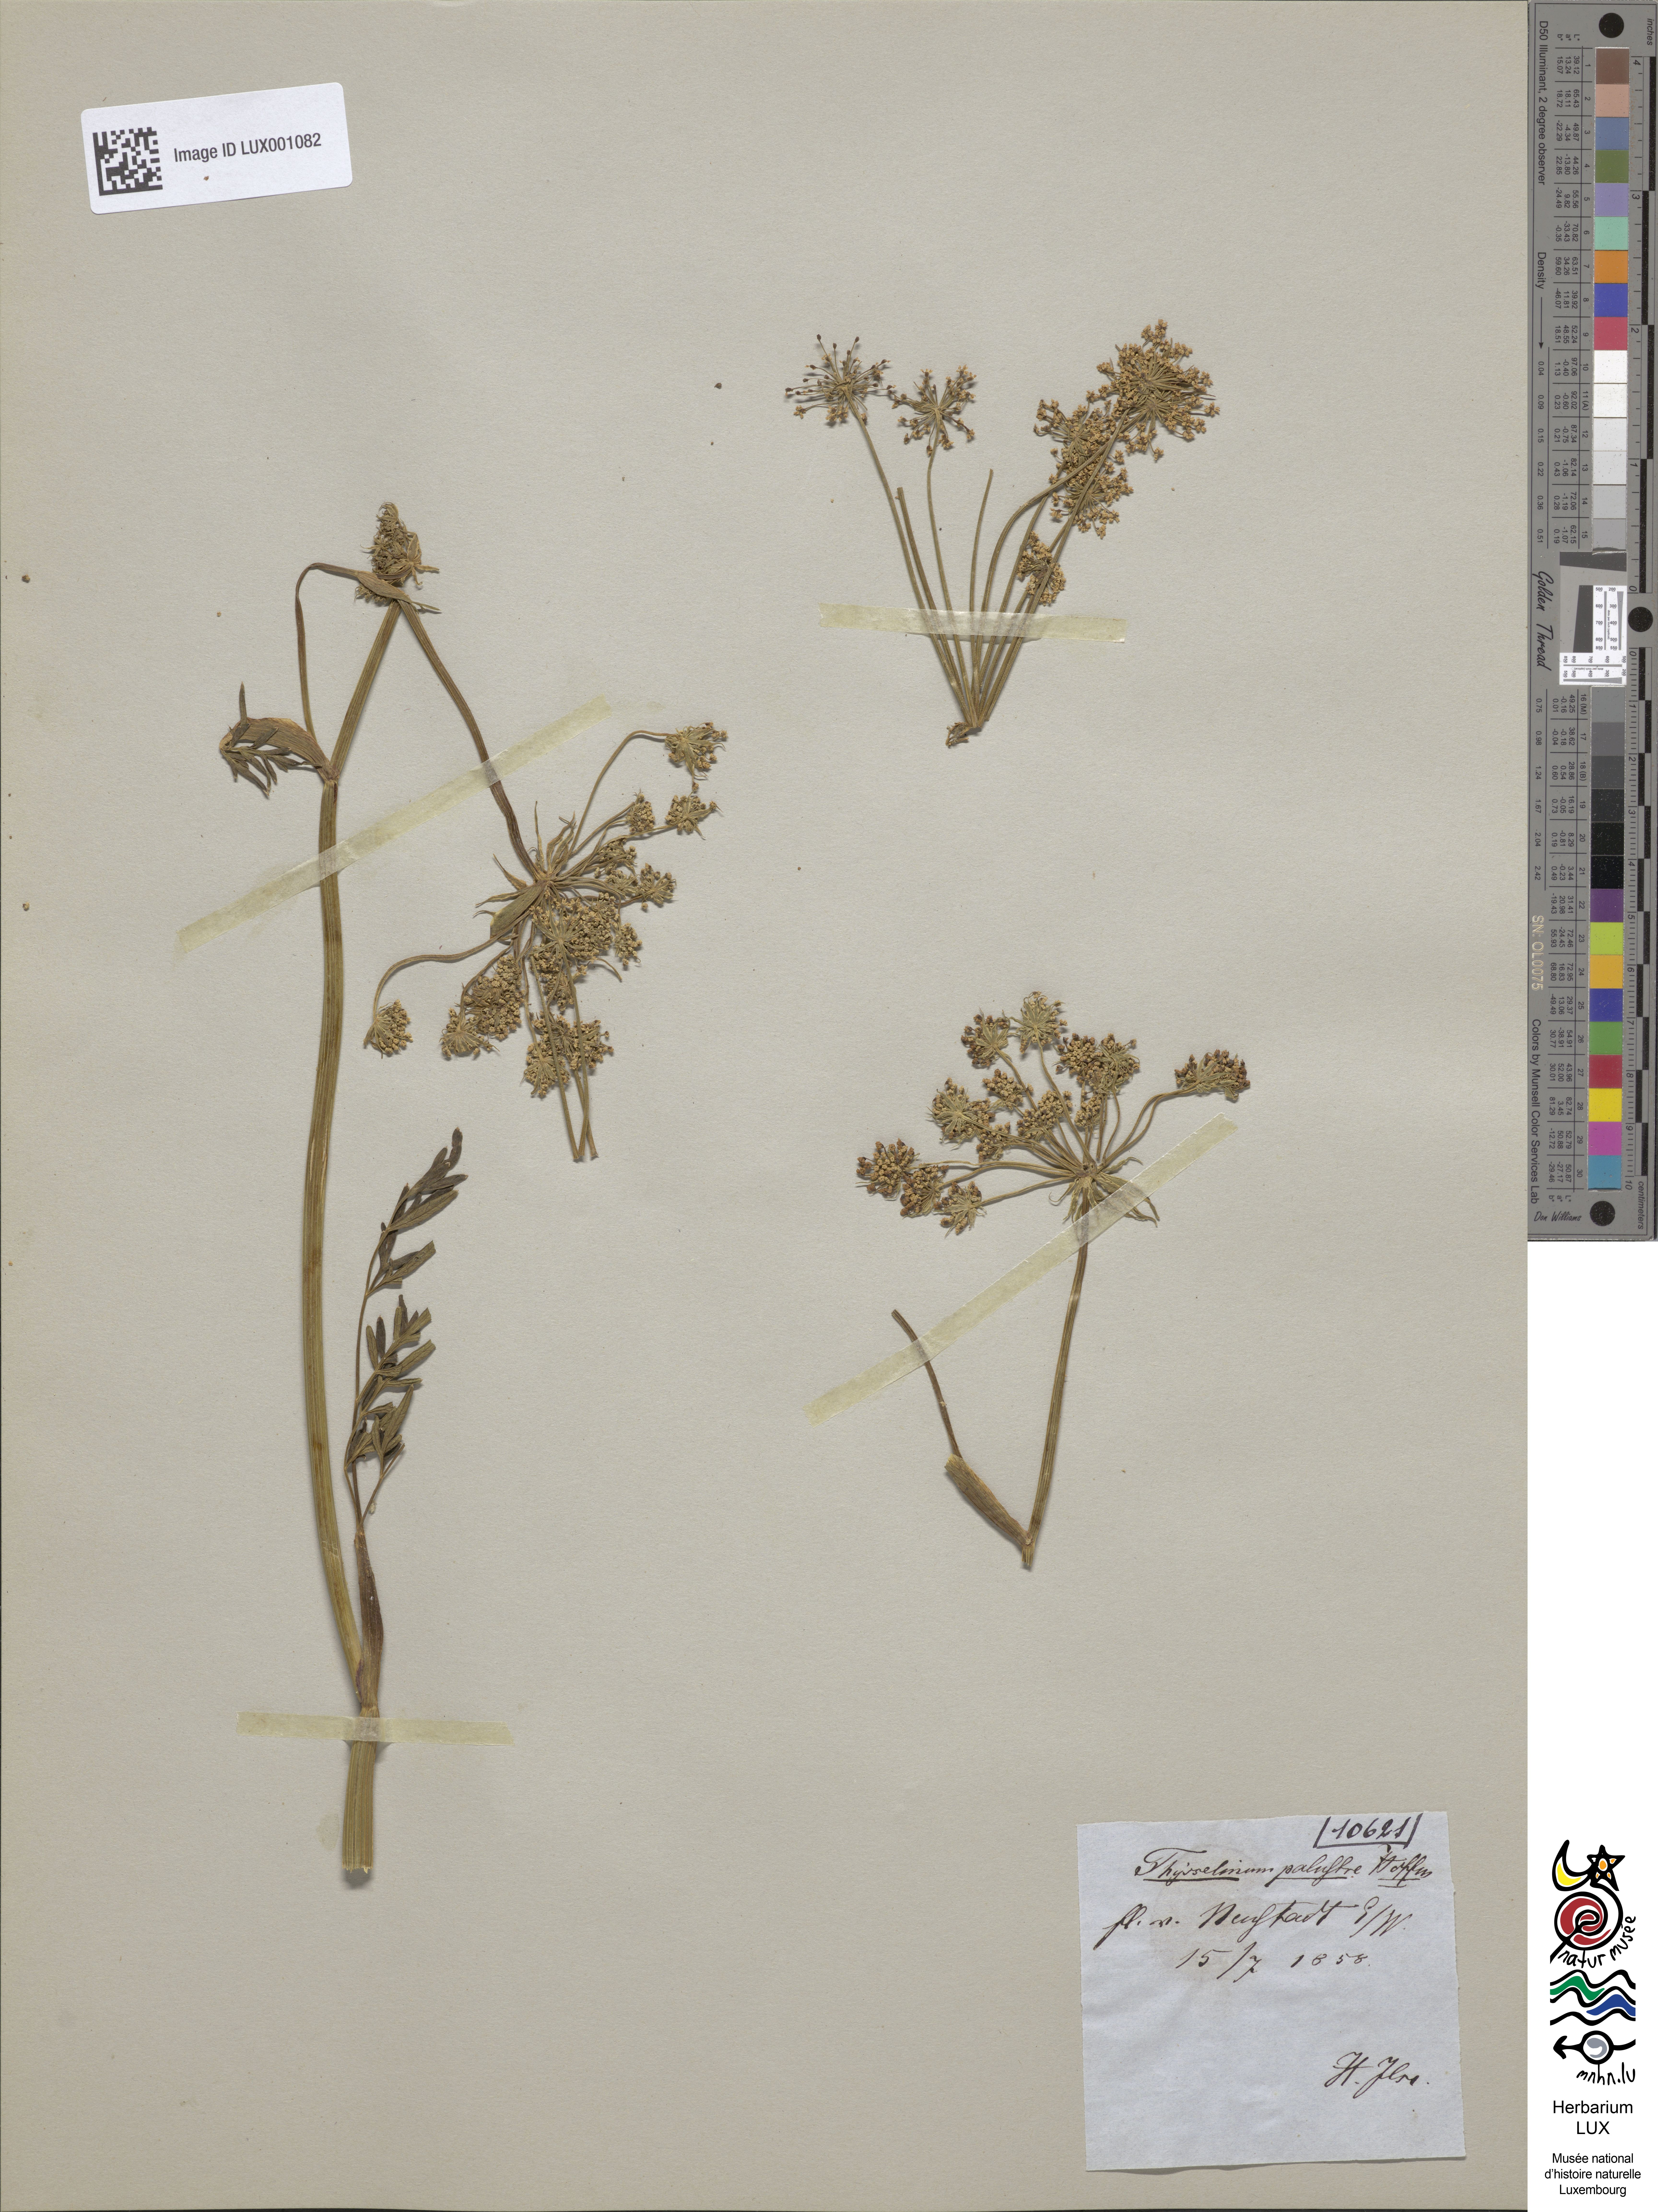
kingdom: Plantae
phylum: Tracheophyta
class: Magnoliopsida
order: Apiales
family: Apiaceae
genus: Thysselinum
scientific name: Thysselinum palustre
